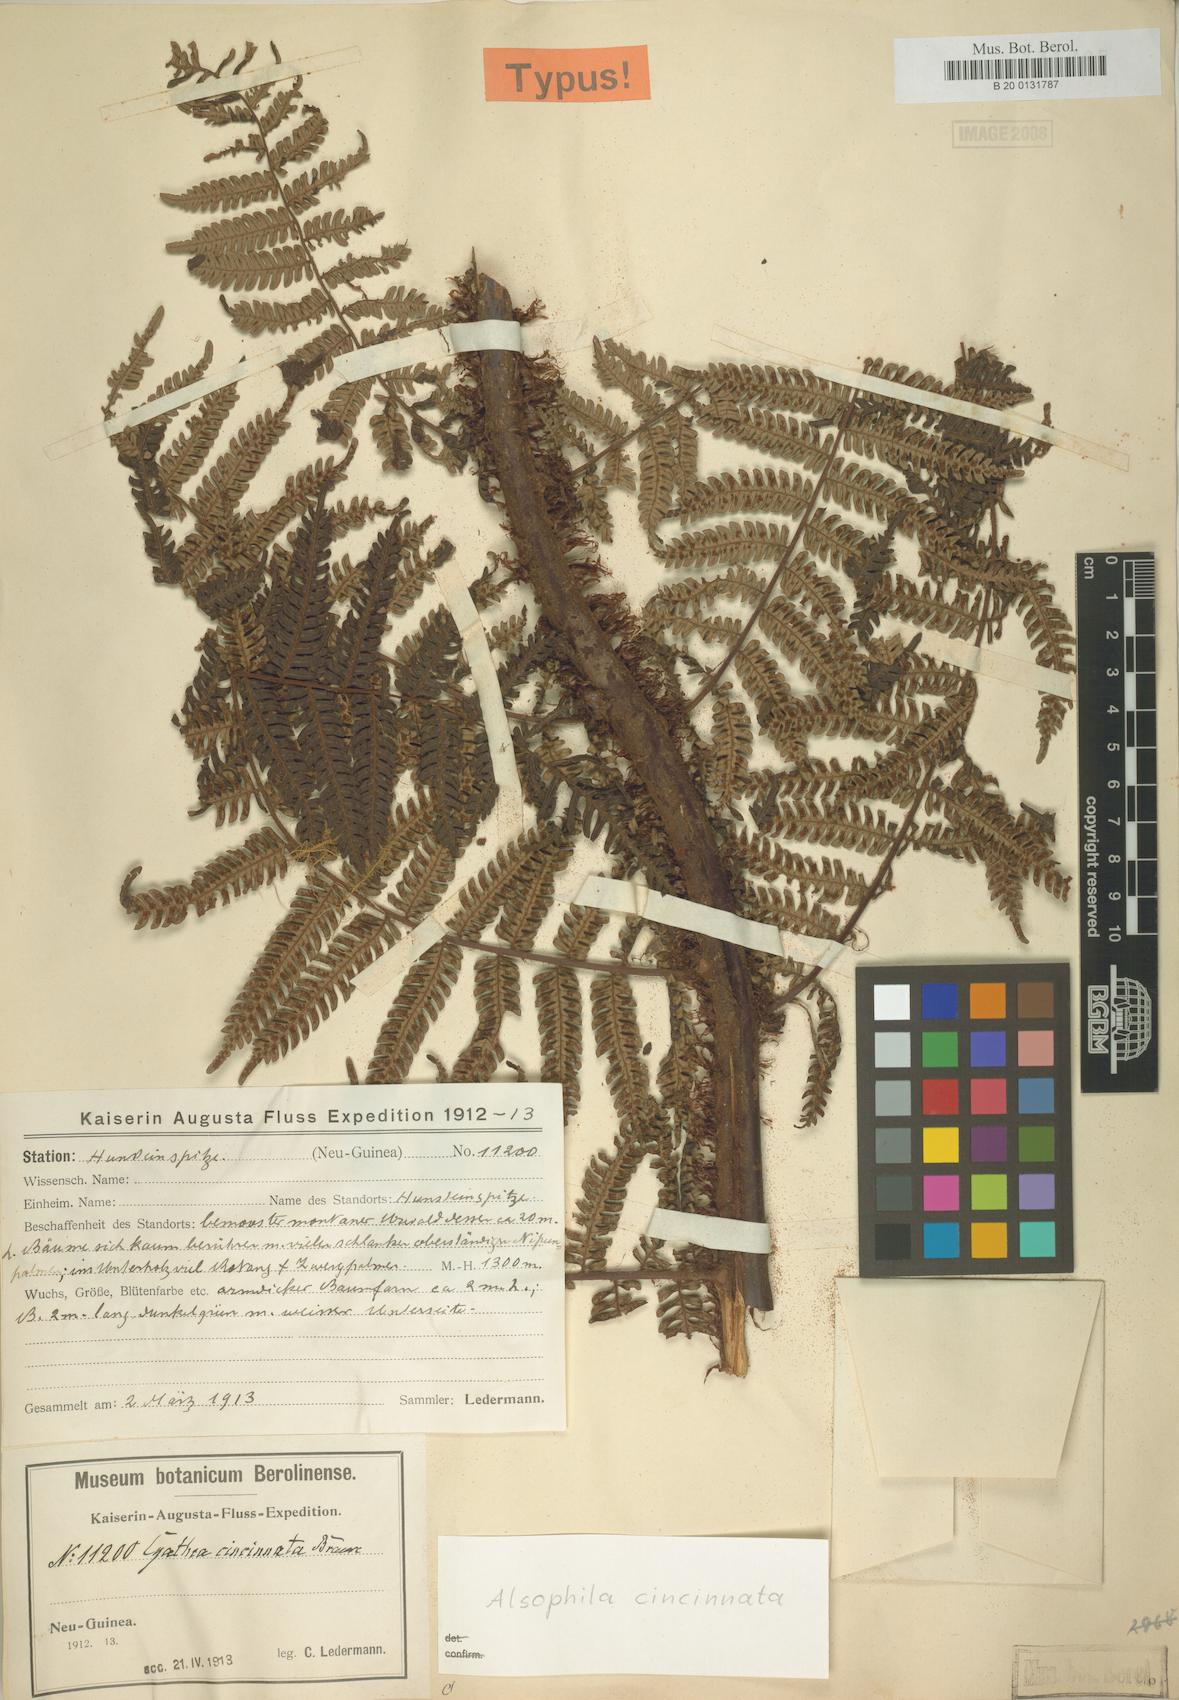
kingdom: Plantae
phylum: Tracheophyta
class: Polypodiopsida
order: Cyatheales
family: Cyatheaceae
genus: Alsophila
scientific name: Alsophila cincinnata
